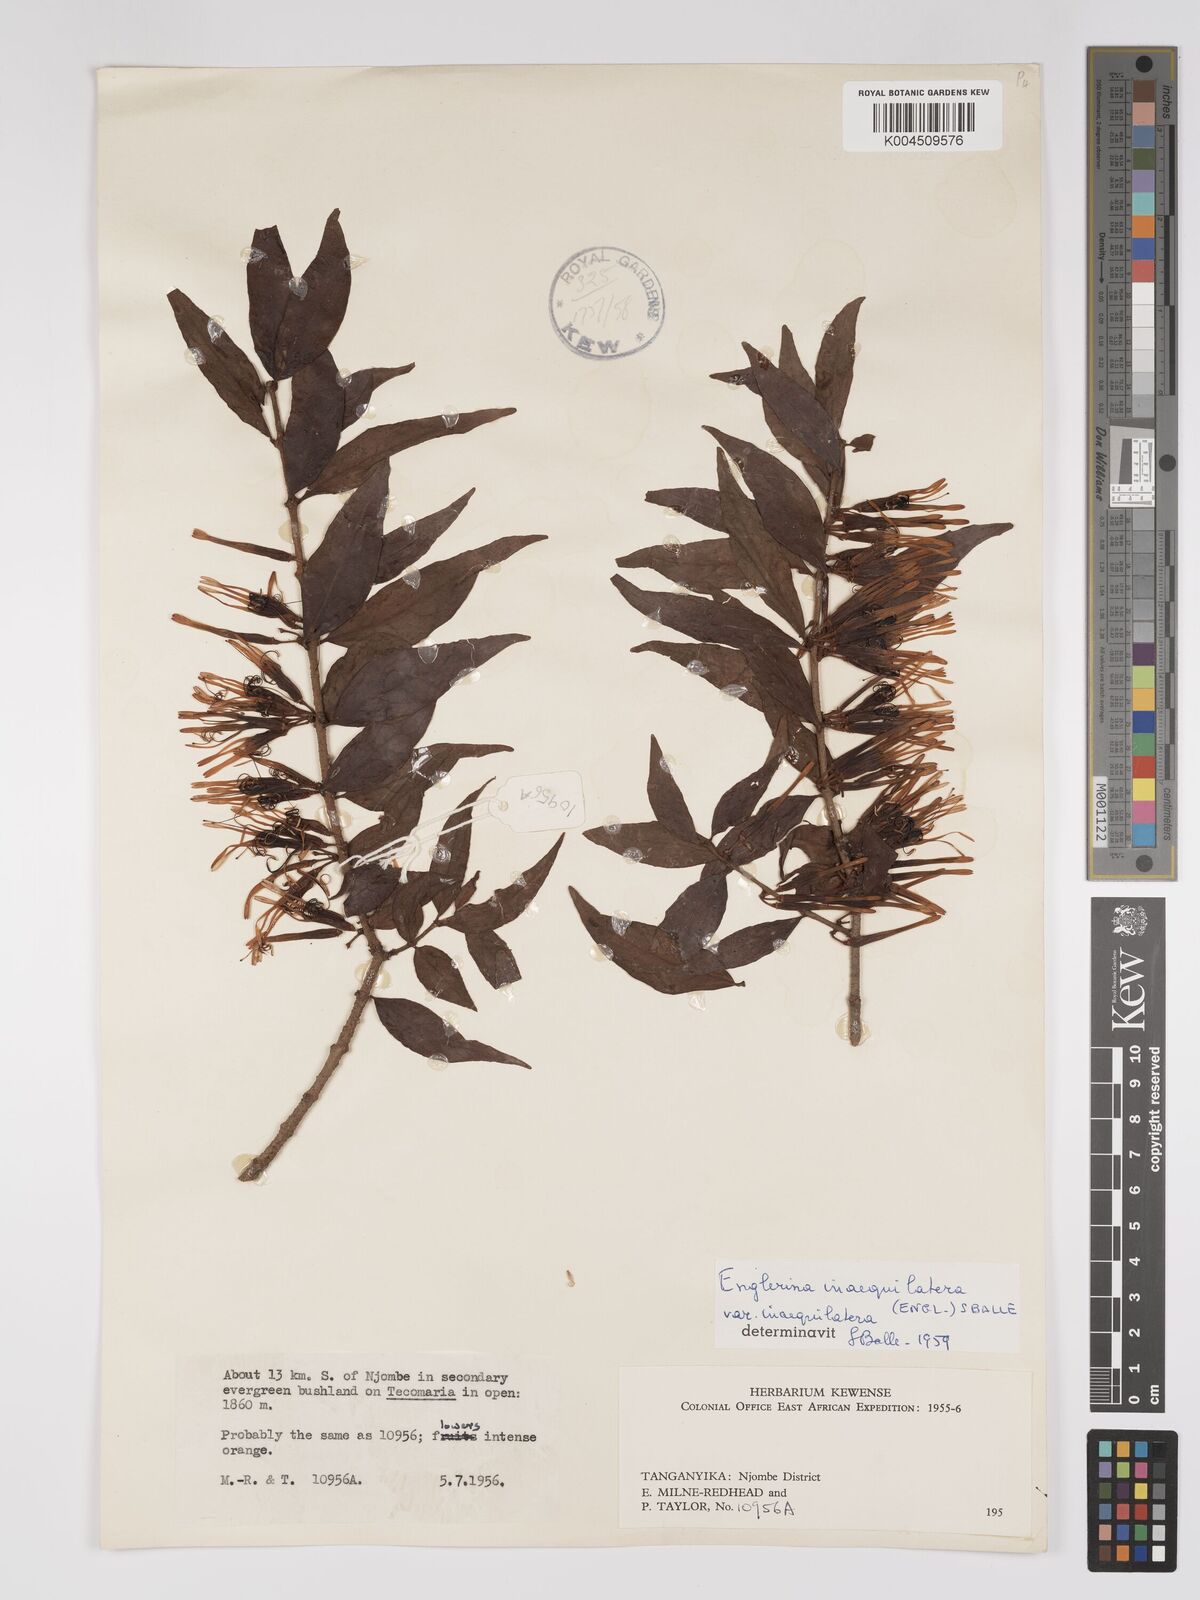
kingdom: Plantae
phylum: Tracheophyta
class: Magnoliopsida
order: Santalales
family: Loranthaceae
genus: Englerina
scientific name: Englerina inaequilatera
